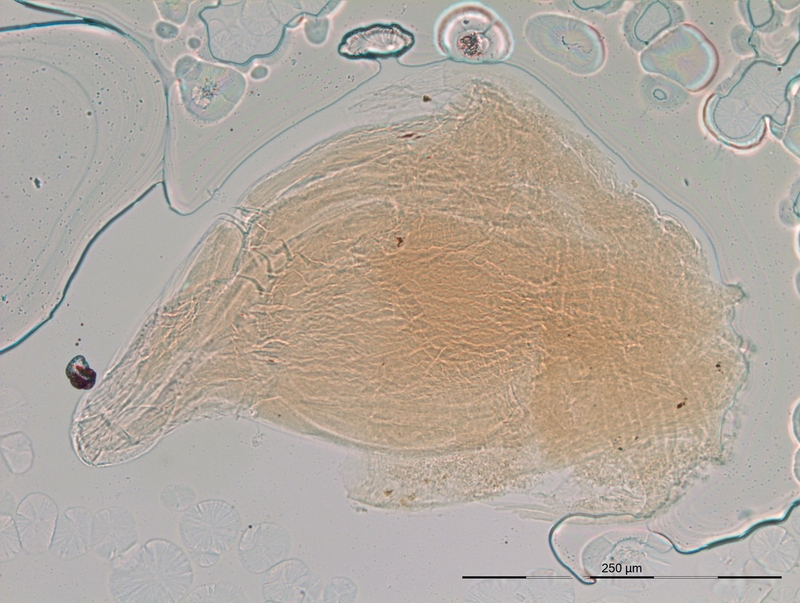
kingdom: Animalia
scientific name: Animalia
